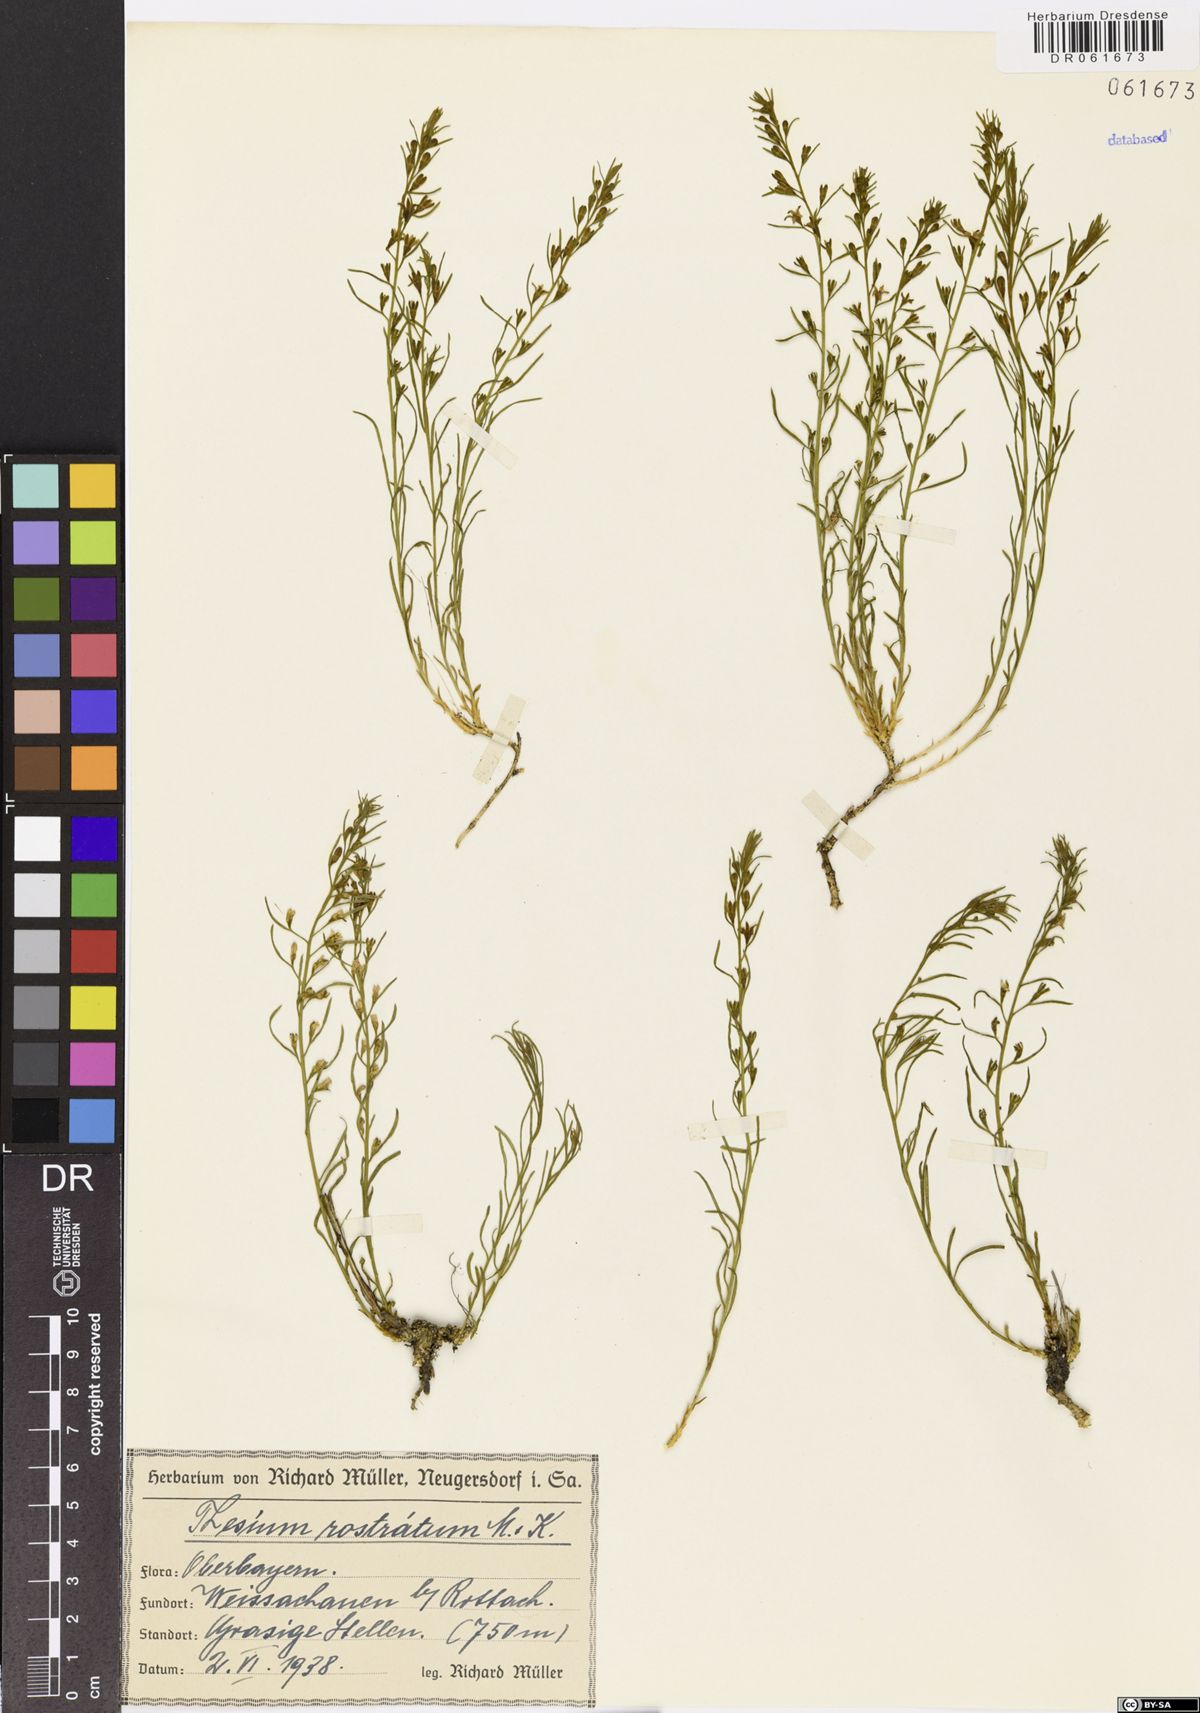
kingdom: Plantae
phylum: Tracheophyta
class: Magnoliopsida
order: Santalales
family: Thesiaceae
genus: Thesium
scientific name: Thesium rostratum
